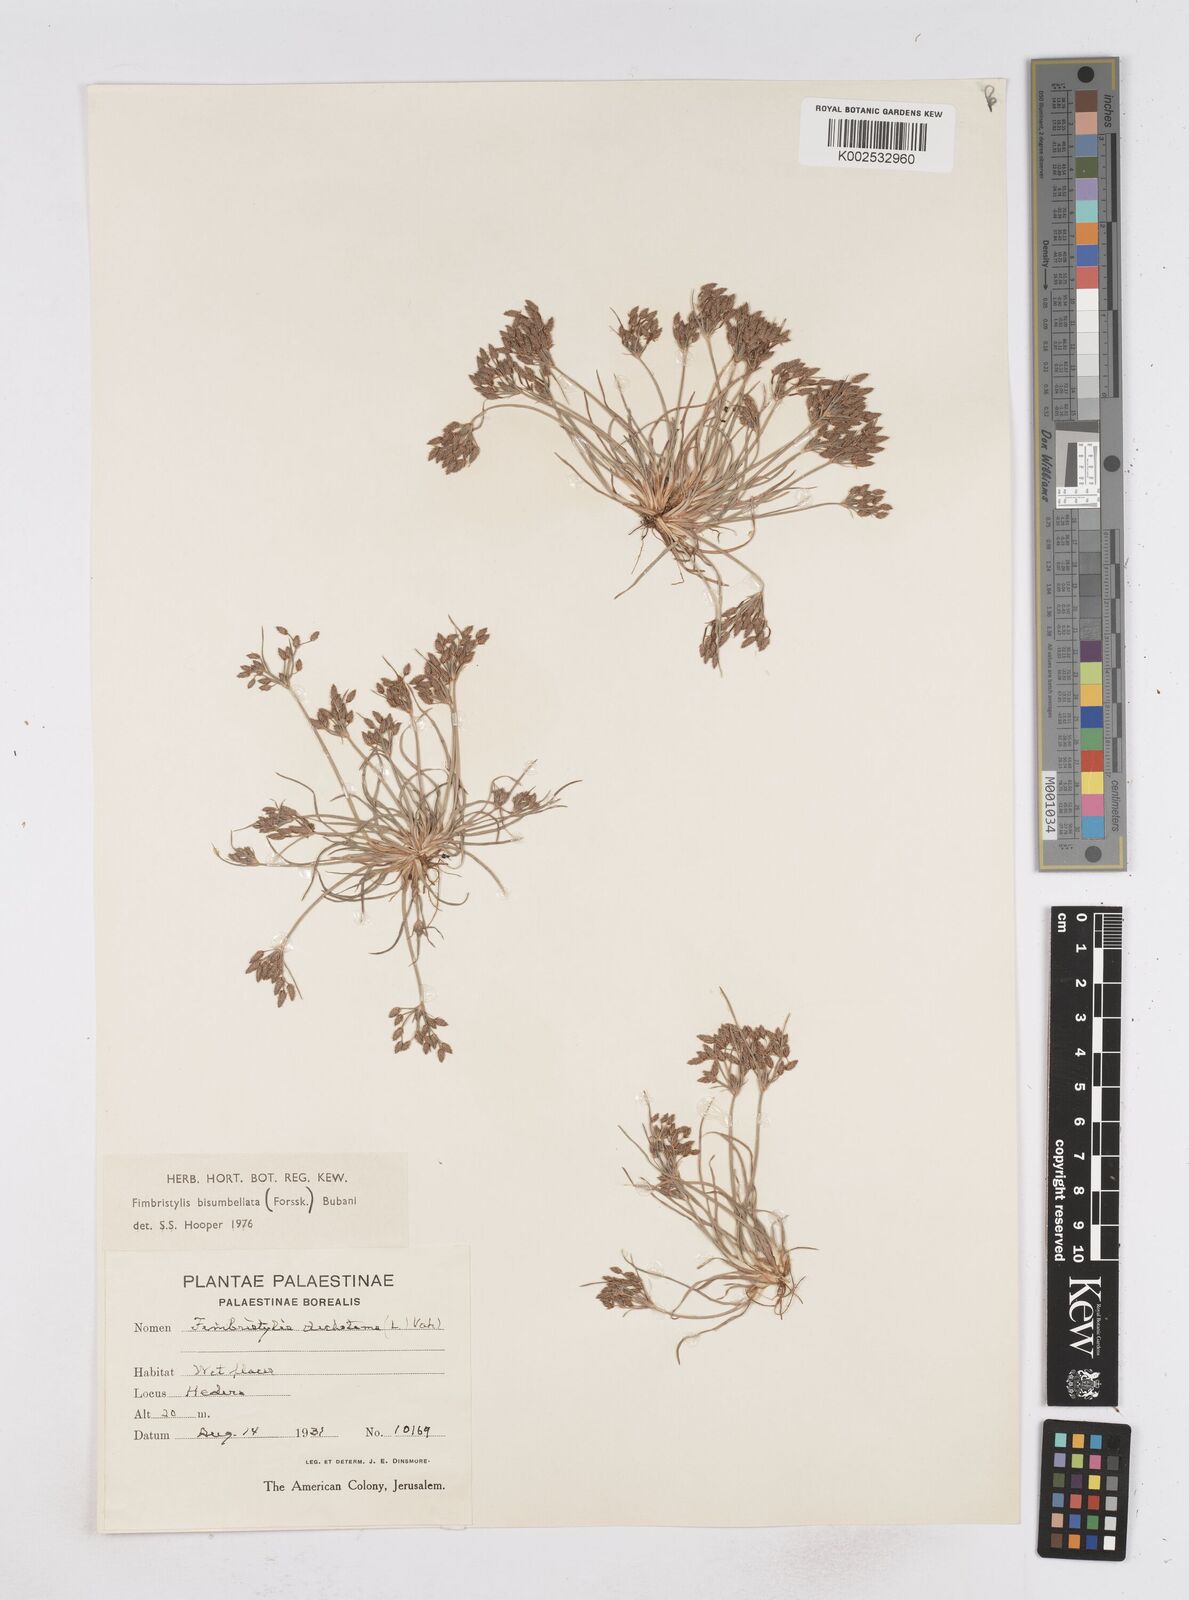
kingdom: Plantae
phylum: Tracheophyta
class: Liliopsida
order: Poales
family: Cyperaceae
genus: Fimbristylis
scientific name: Fimbristylis bisumbellata
